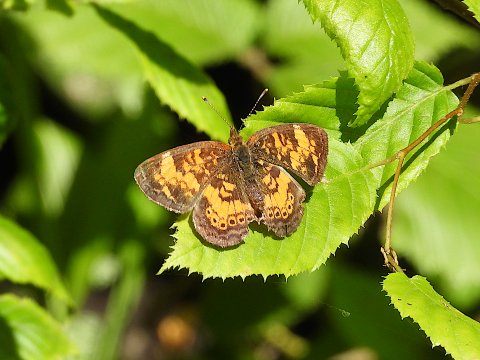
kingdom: Animalia
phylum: Arthropoda
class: Insecta
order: Lepidoptera
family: Nymphalidae
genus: Phyciodes
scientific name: Phyciodes tharos
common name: Pearl Crescent
